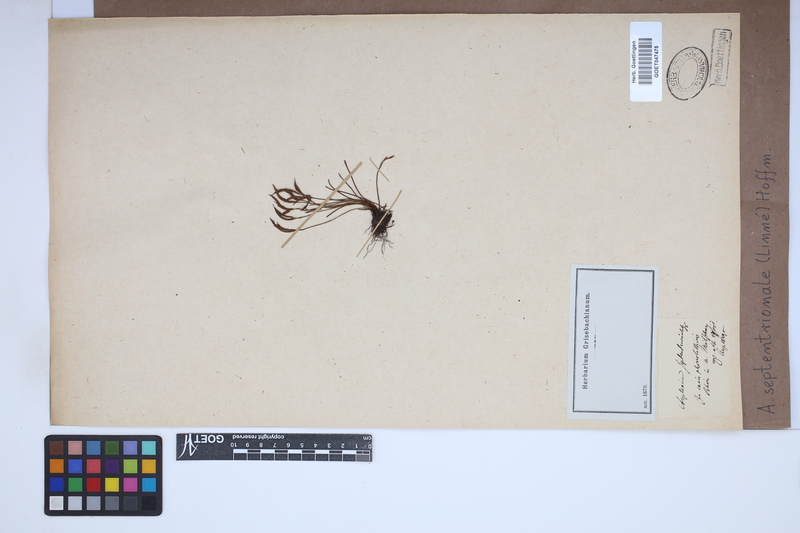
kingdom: Plantae
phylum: Tracheophyta
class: Polypodiopsida
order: Polypodiales
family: Aspleniaceae
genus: Asplenium
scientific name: Asplenium septentrionale
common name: Forked spleenwort
